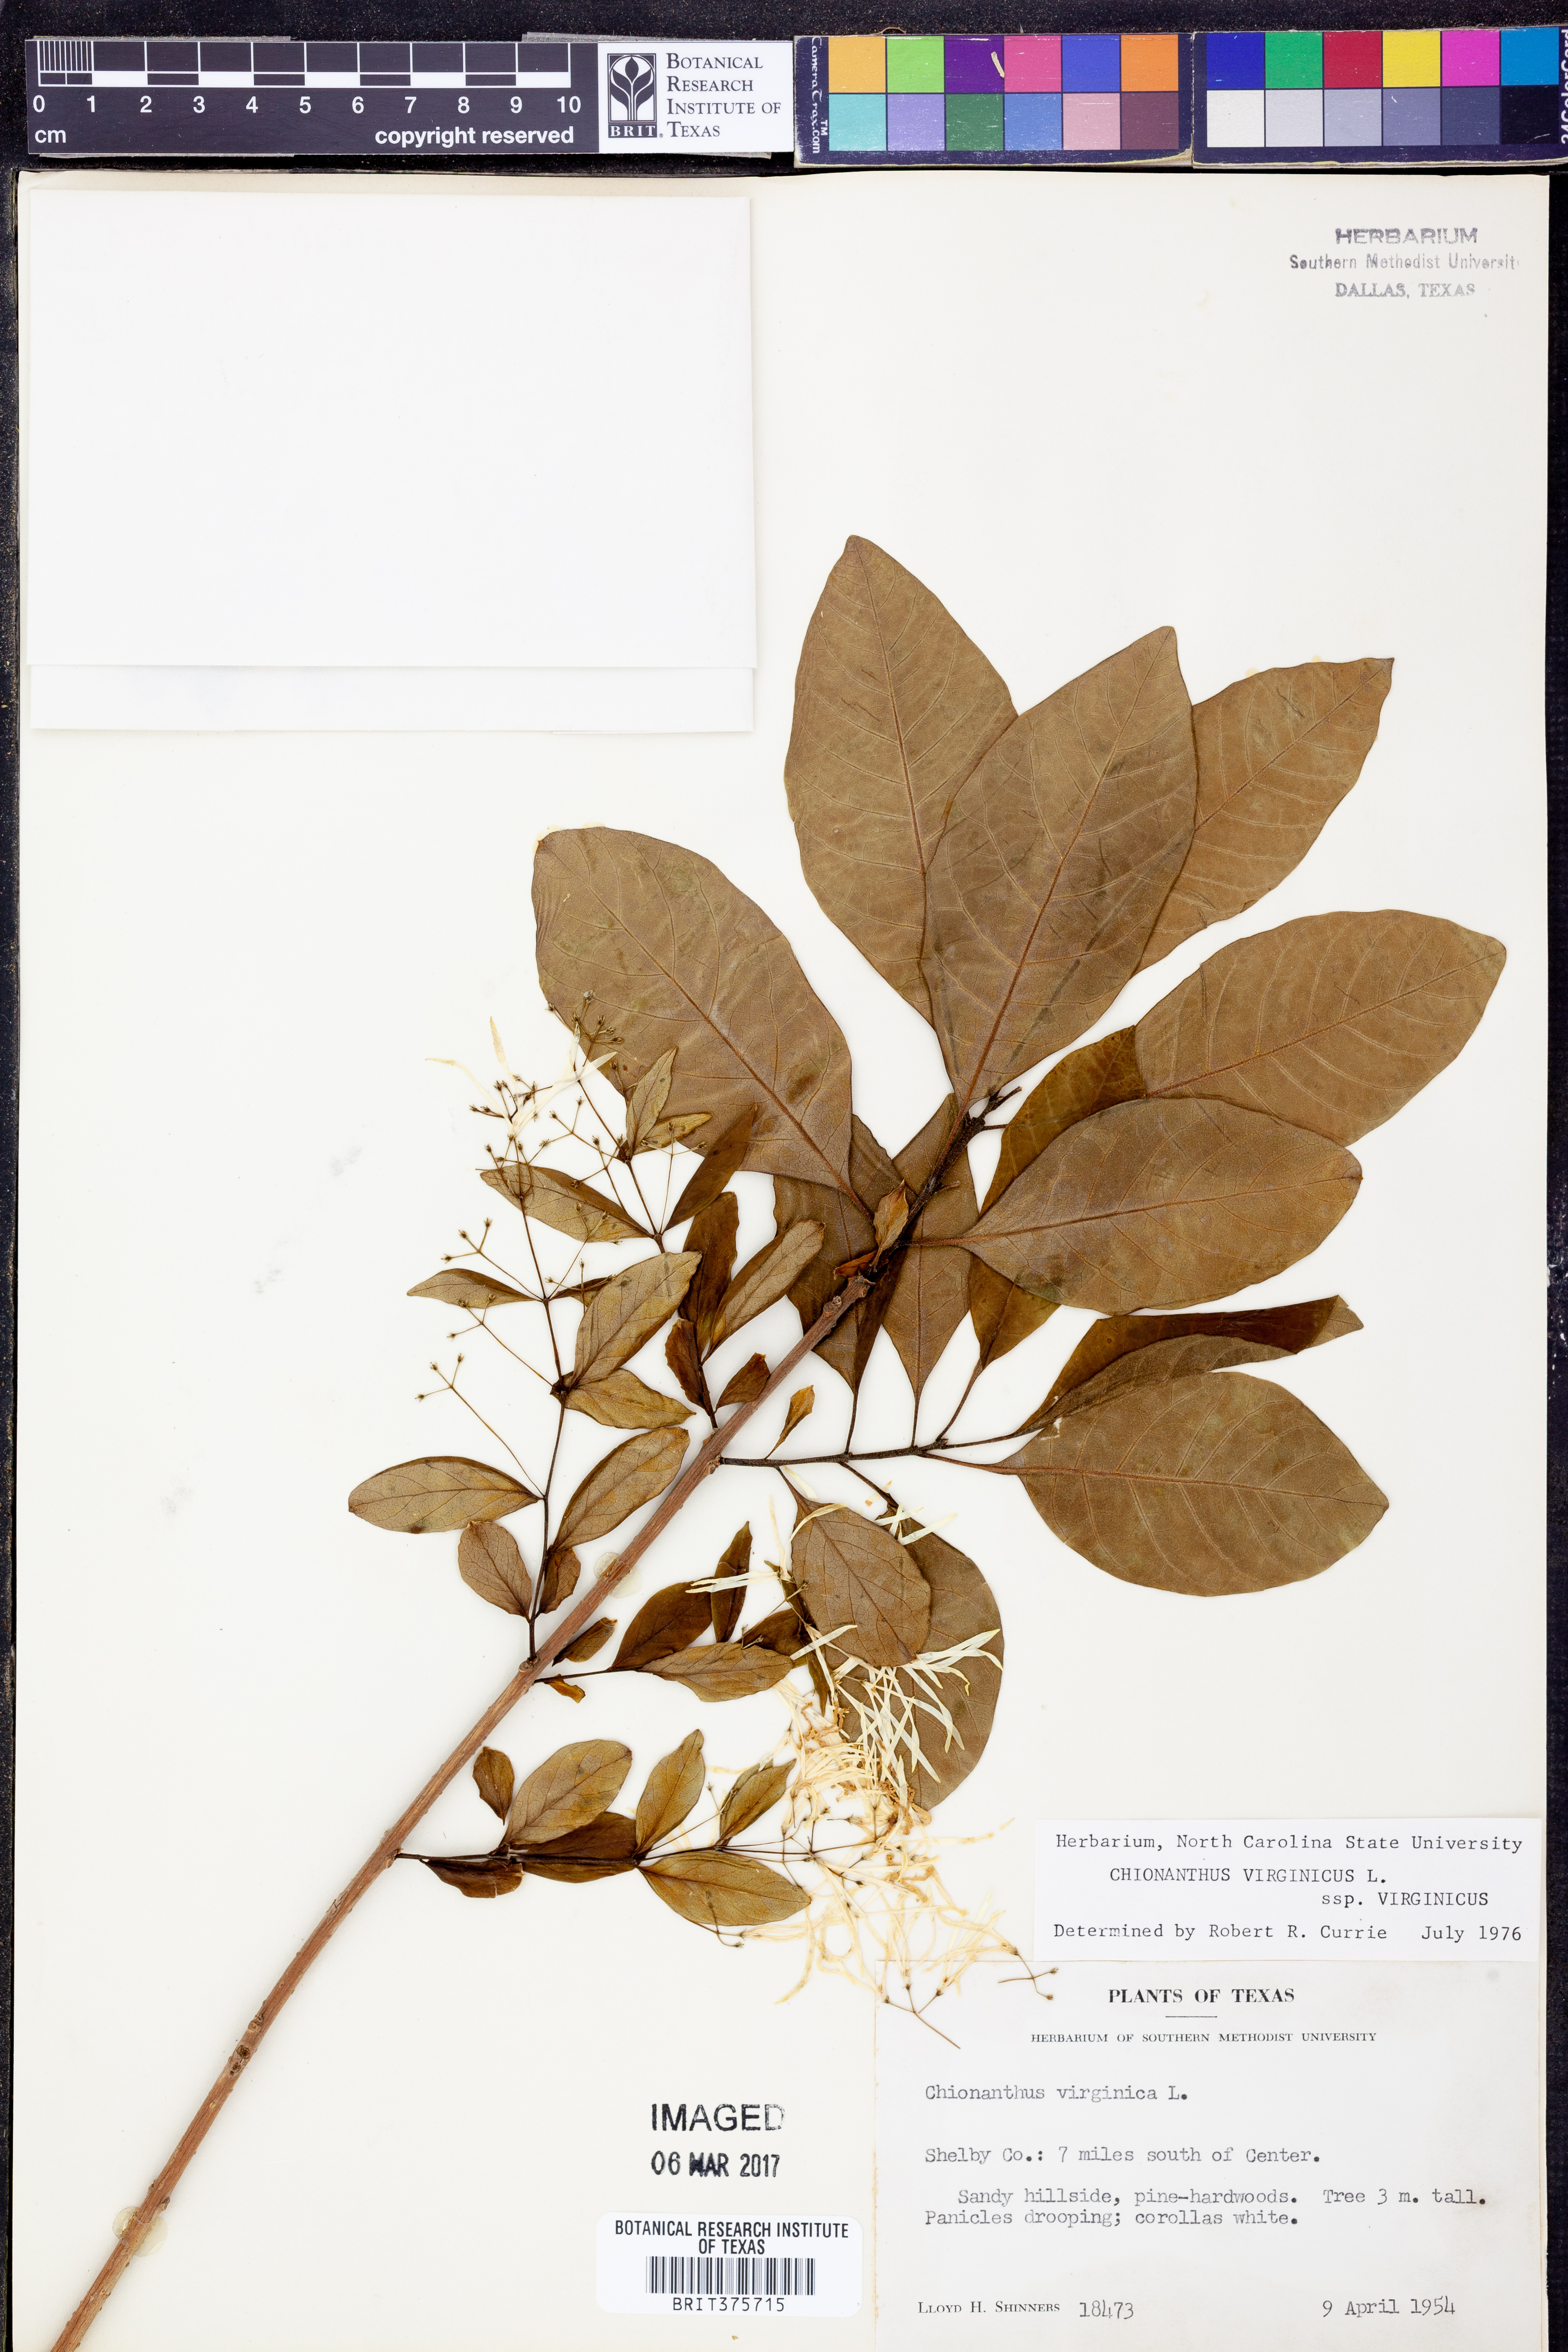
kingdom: Plantae
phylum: Tracheophyta
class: Magnoliopsida
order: Lamiales
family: Oleaceae
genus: Chionanthus
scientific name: Chionanthus virginicus
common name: American fringetree
